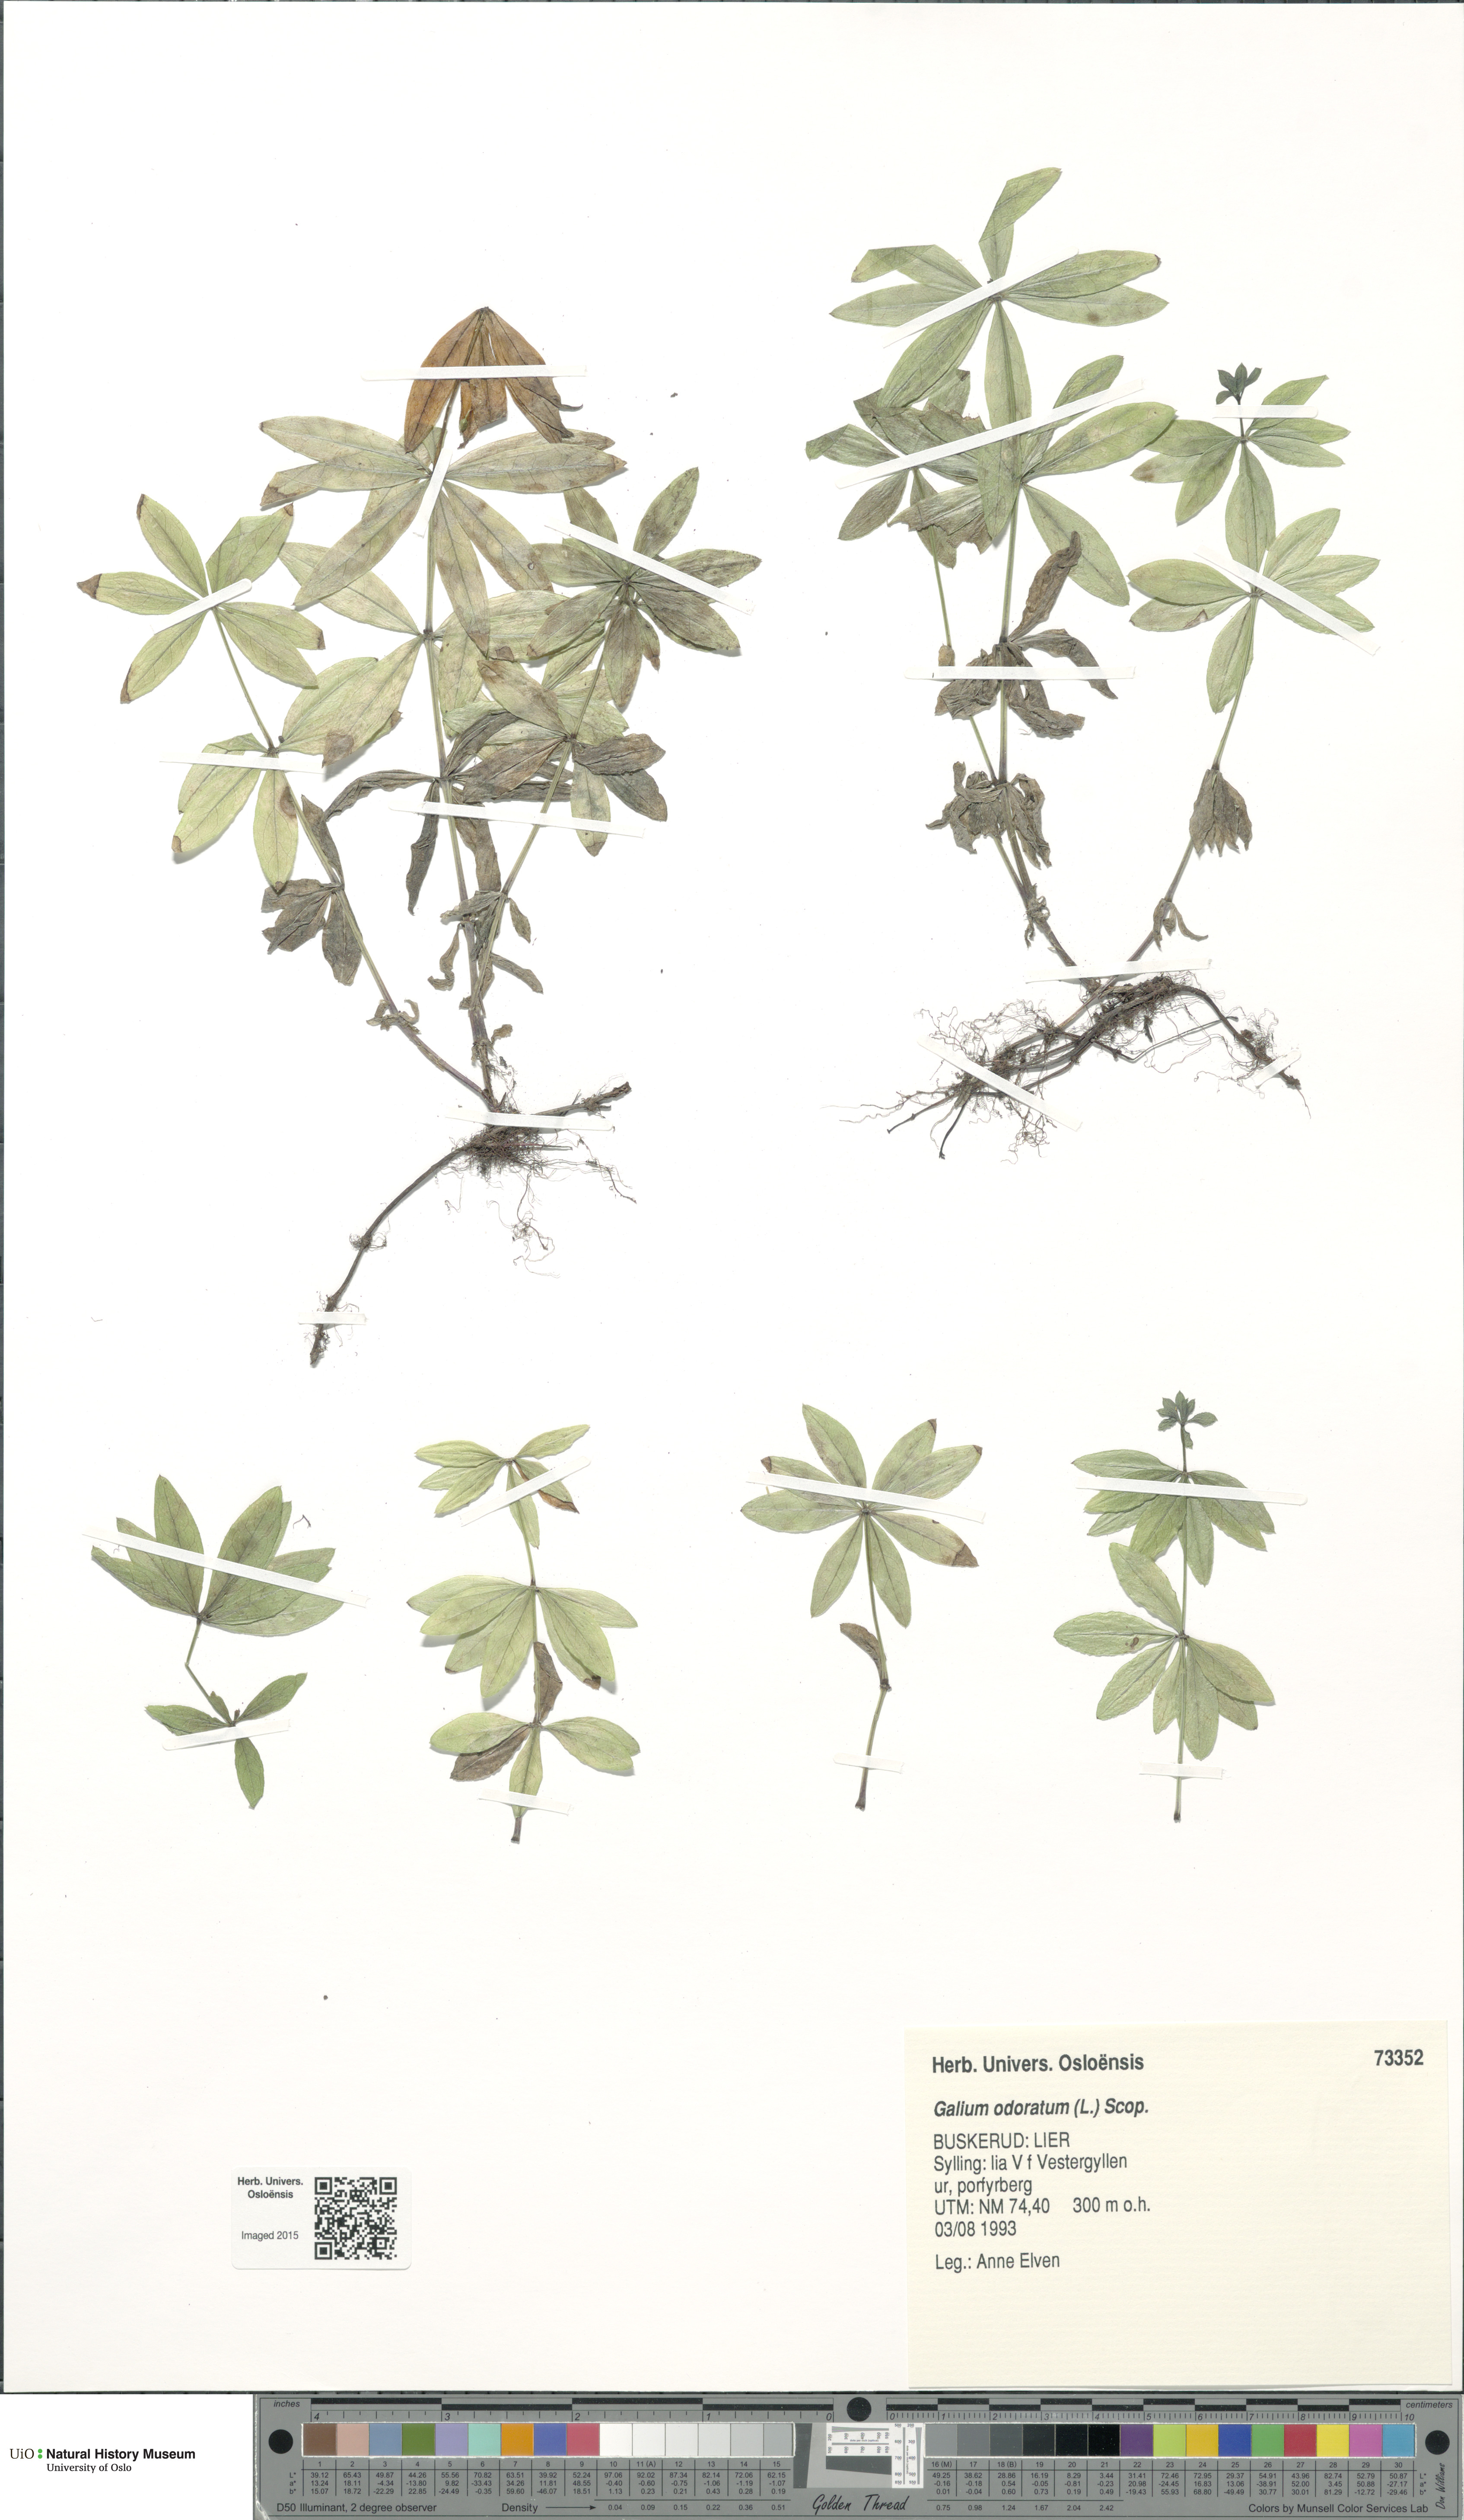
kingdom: Plantae
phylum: Tracheophyta
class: Magnoliopsida
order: Gentianales
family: Rubiaceae
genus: Galium
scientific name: Galium odoratum
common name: Sweet woodruff
